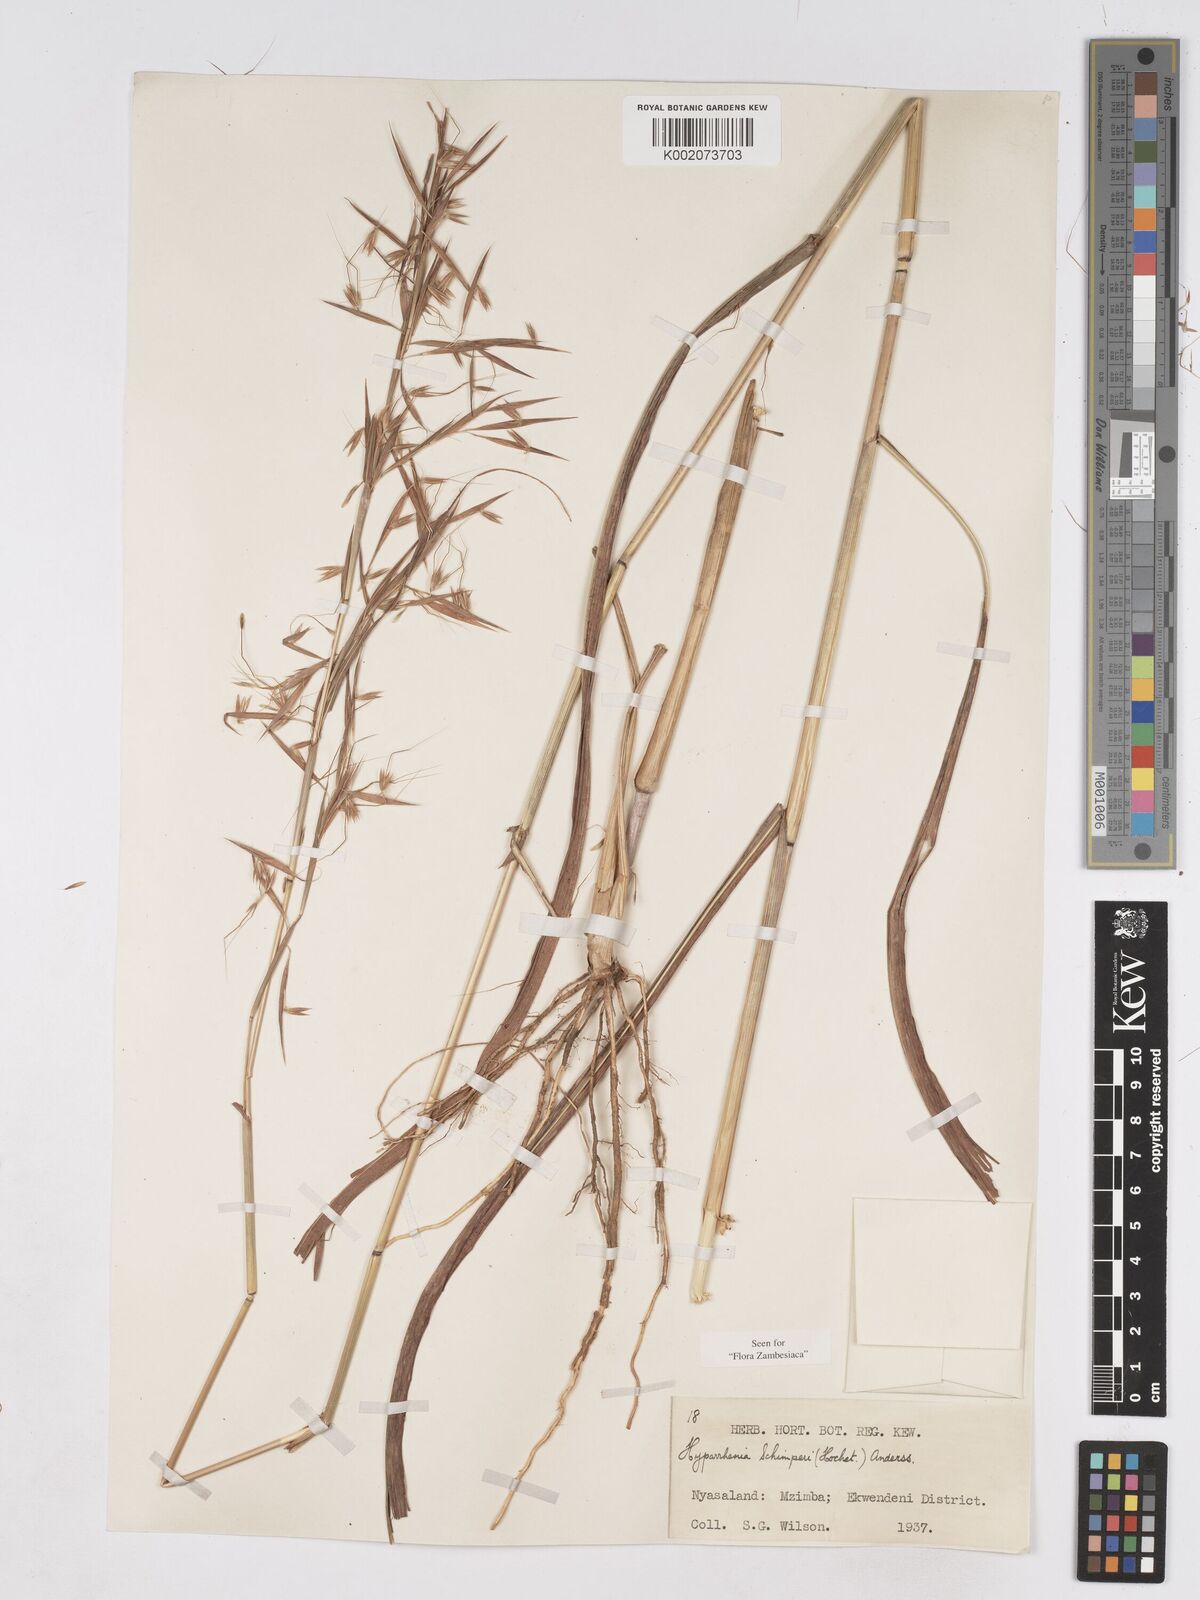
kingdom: Plantae
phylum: Tracheophyta
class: Liliopsida
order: Poales
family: Poaceae
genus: Hyparrhenia
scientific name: Hyparrhenia schimperi
